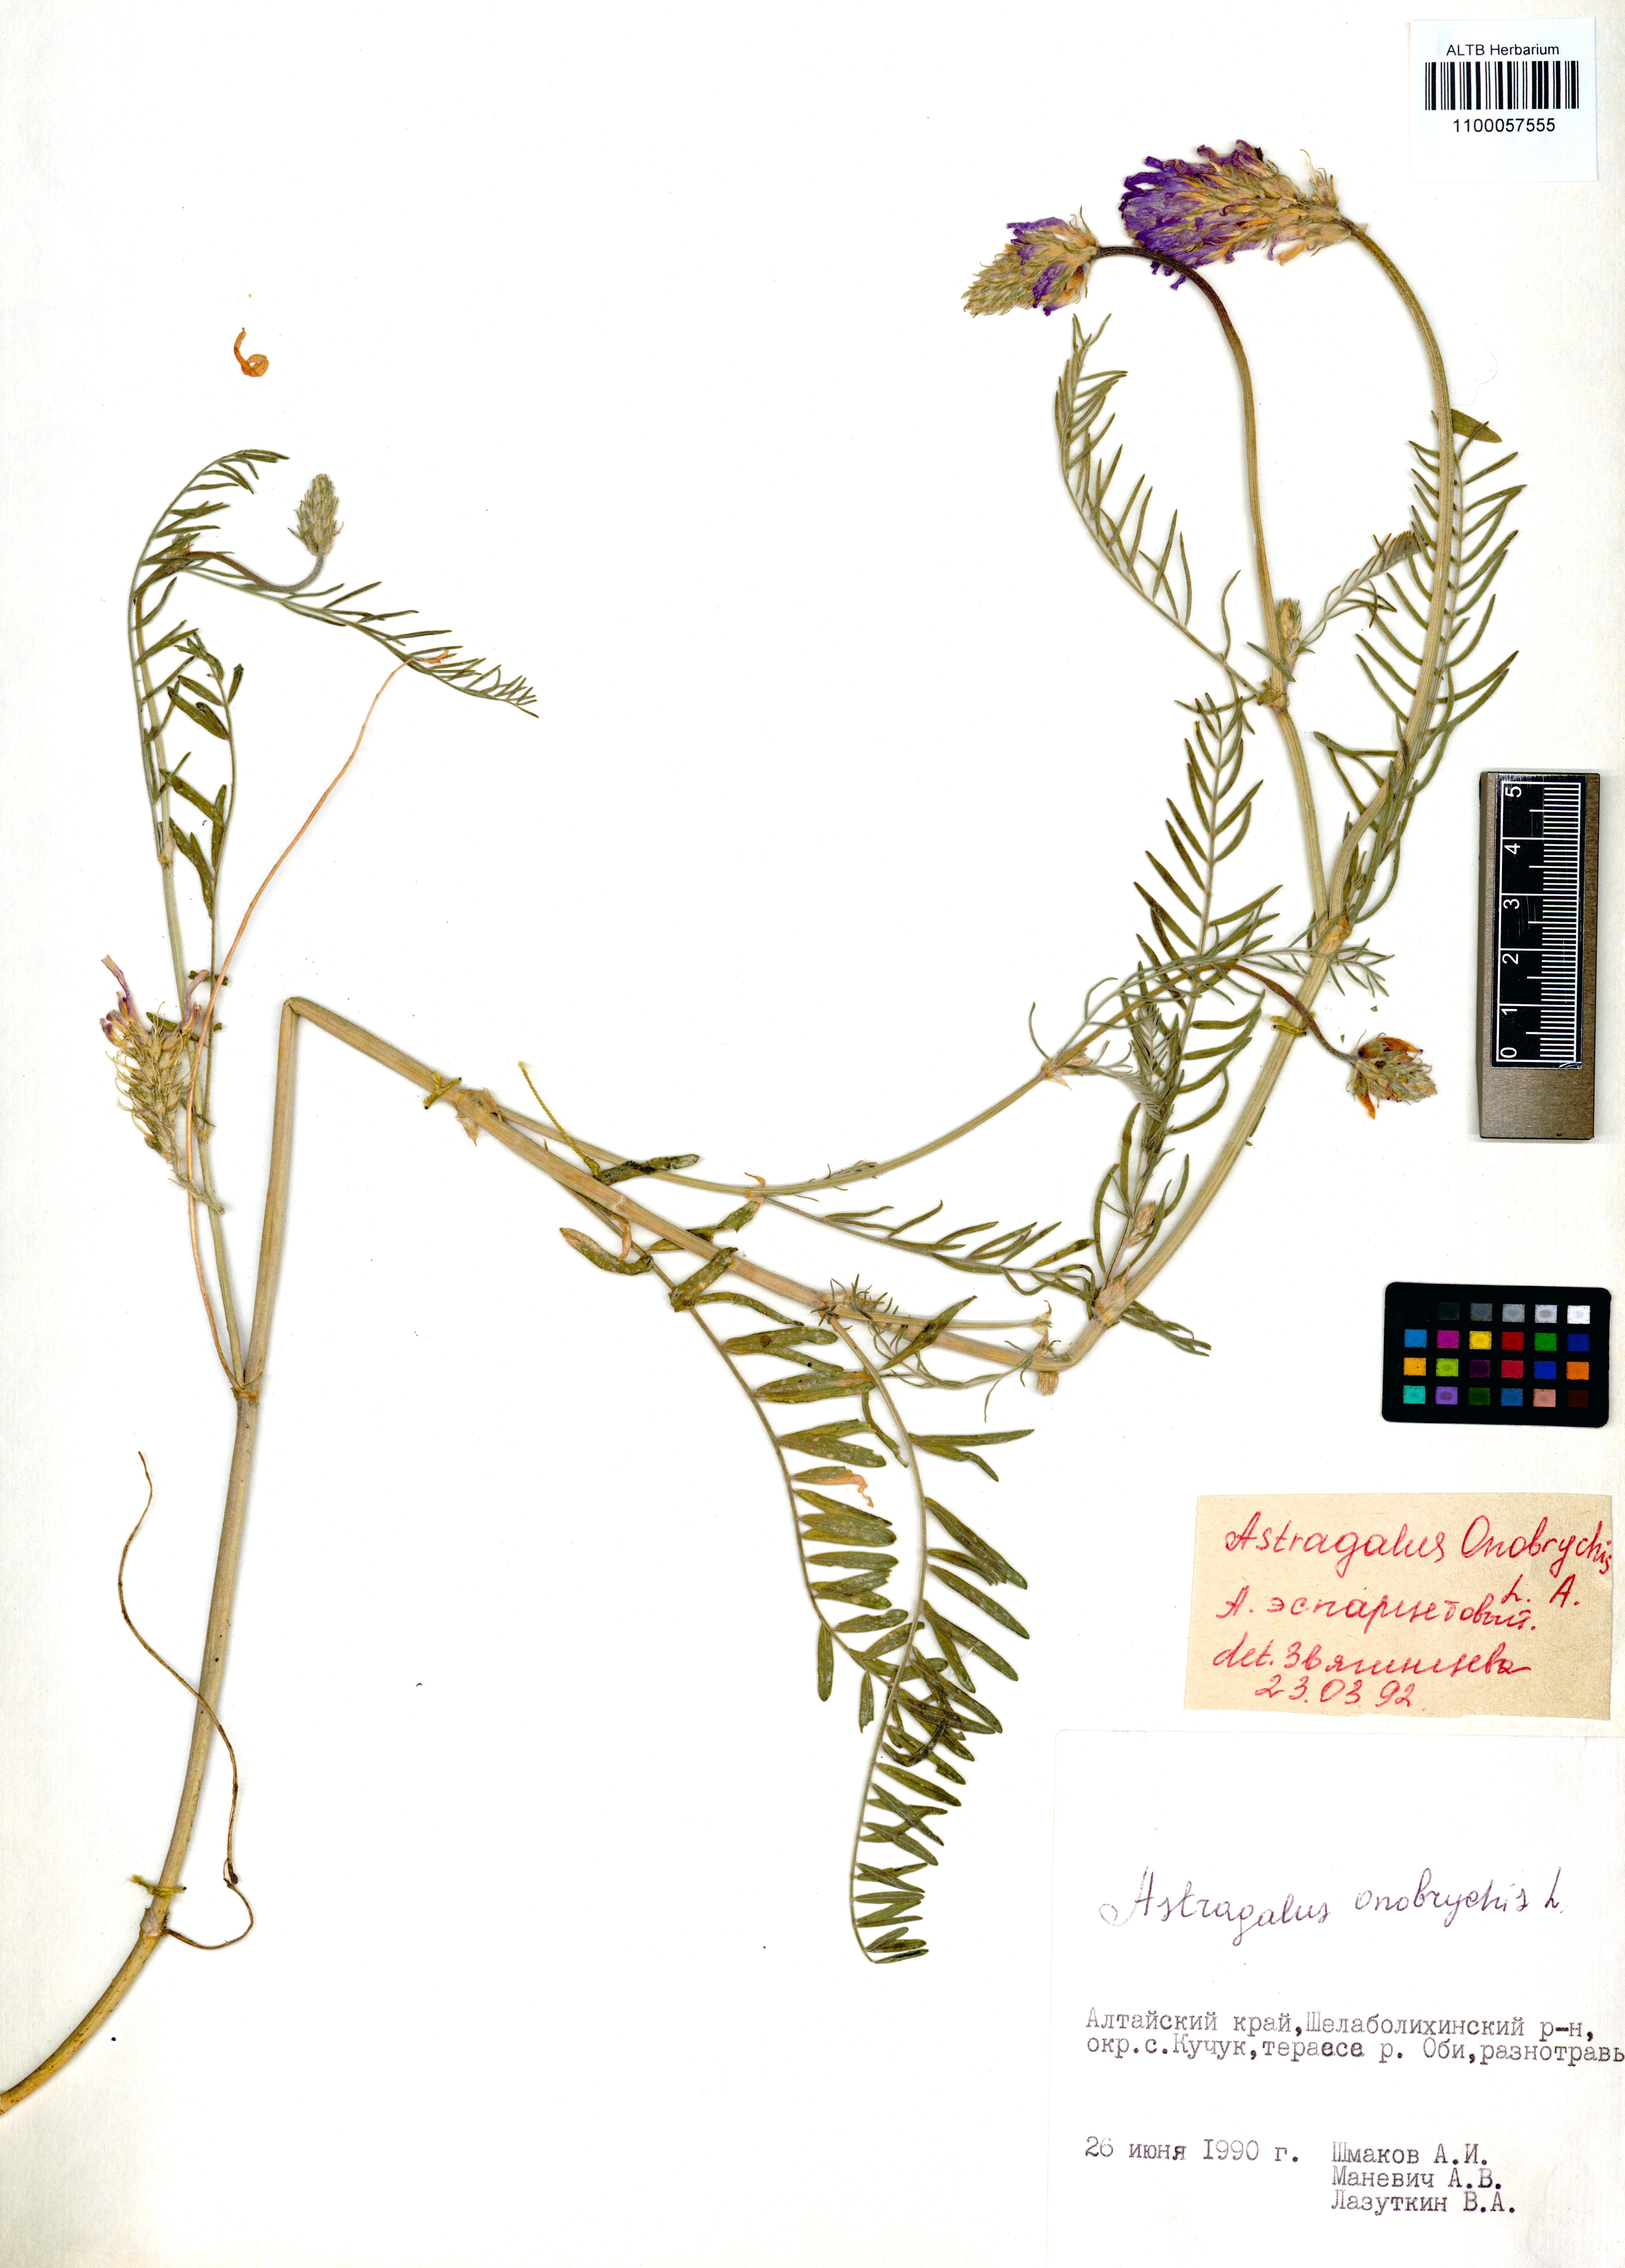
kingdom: Plantae
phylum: Tracheophyta
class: Magnoliopsida
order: Fabales
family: Fabaceae
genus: Astragalus
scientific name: Astragalus onobrychis
